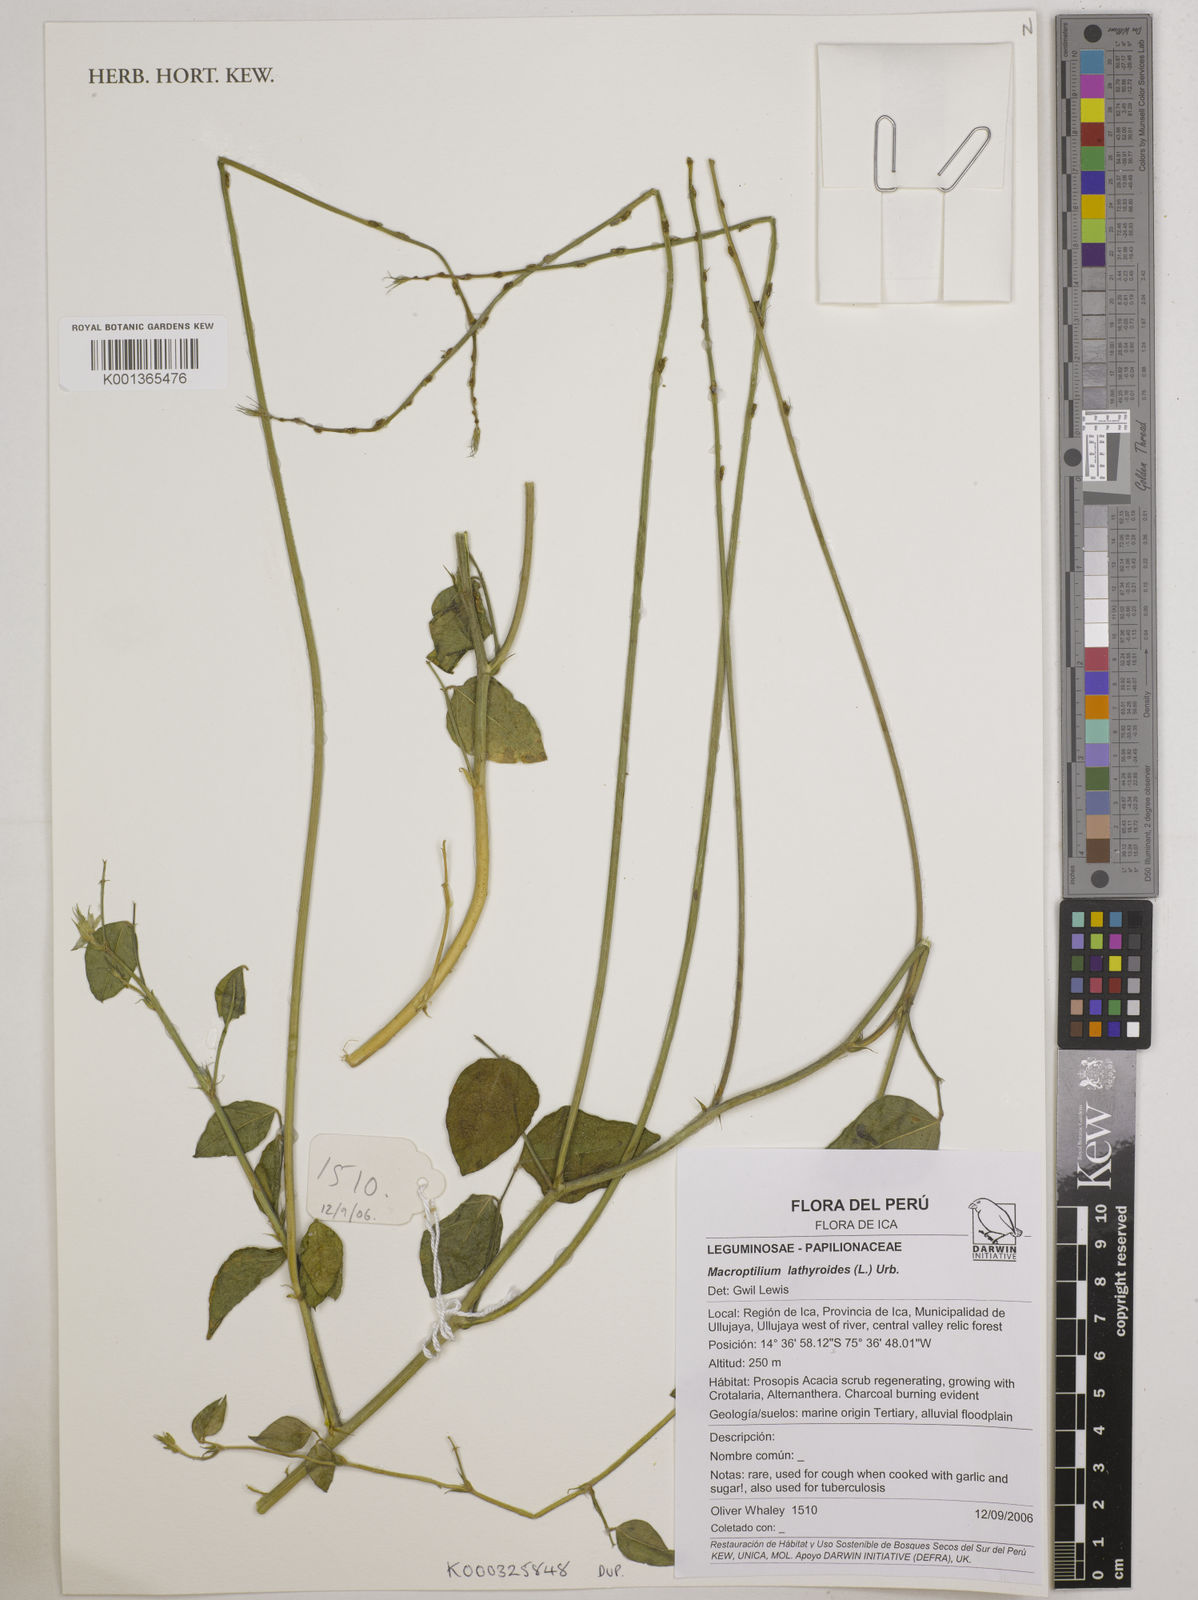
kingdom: Plantae
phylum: Tracheophyta
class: Magnoliopsida
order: Fabales
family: Fabaceae
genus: Macroptilium
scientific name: Macroptilium lathyroides
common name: Wild bushbean
